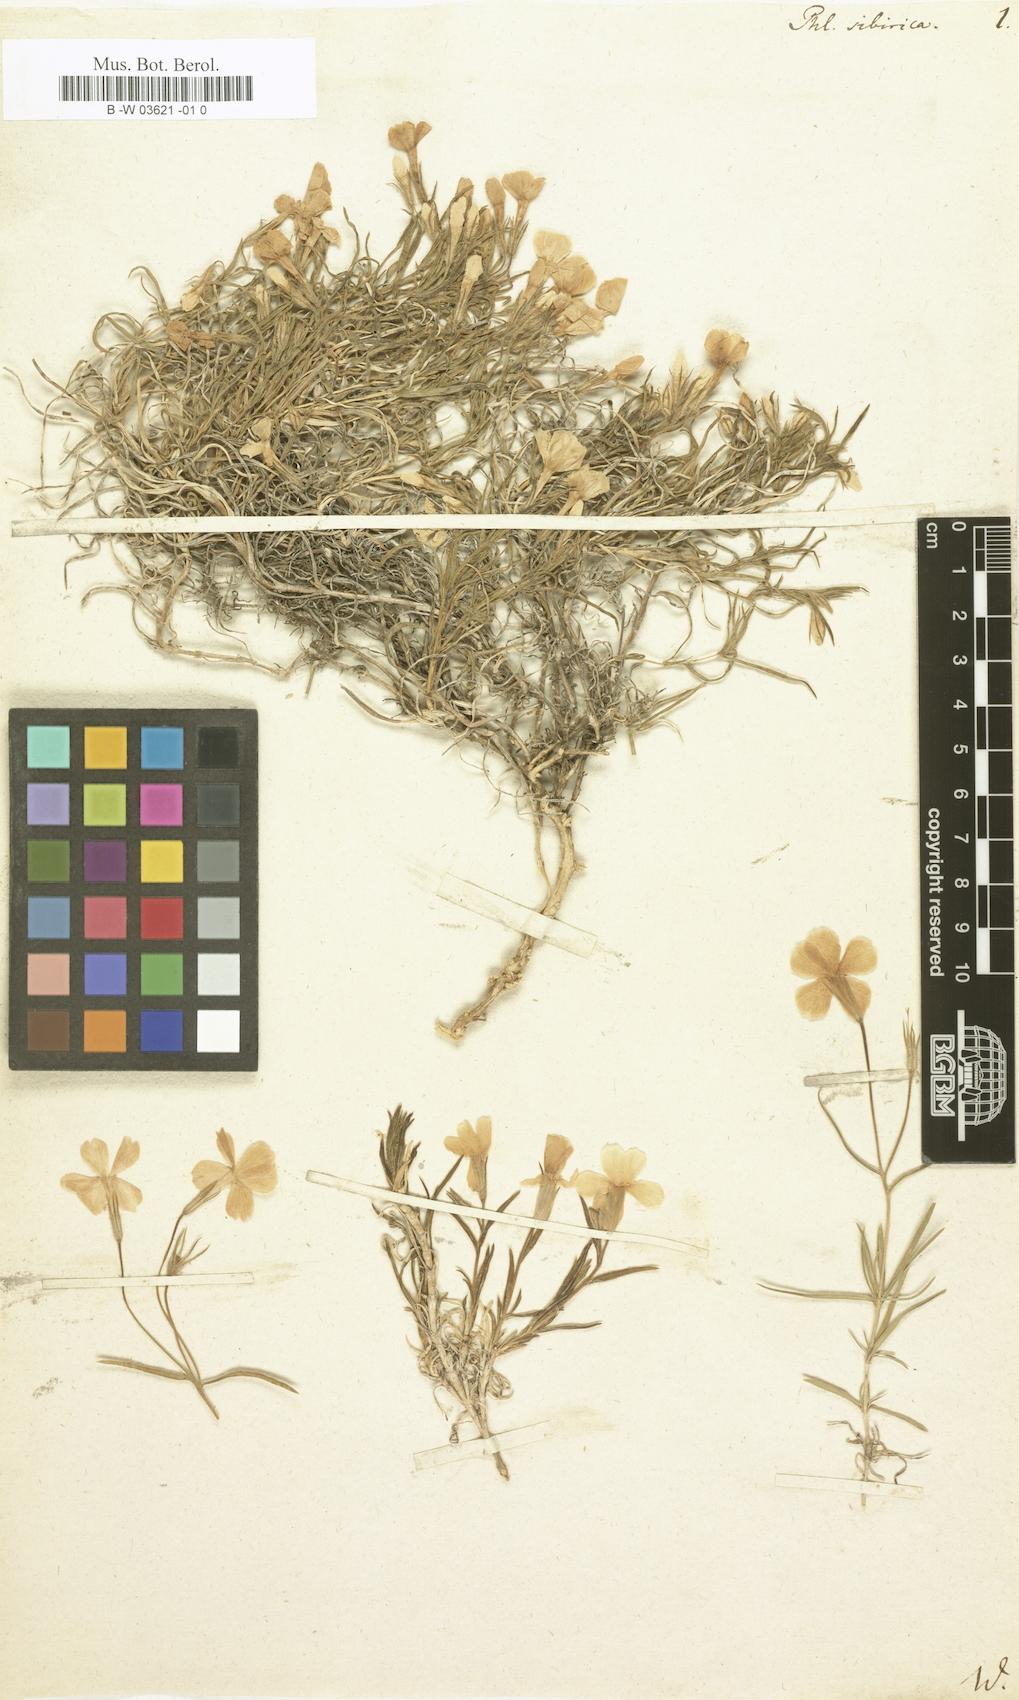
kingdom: Plantae
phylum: Tracheophyta
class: Magnoliopsida
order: Ericales
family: Polemoniaceae
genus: Phlox
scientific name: Phlox sibirica
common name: Siberian phlox
